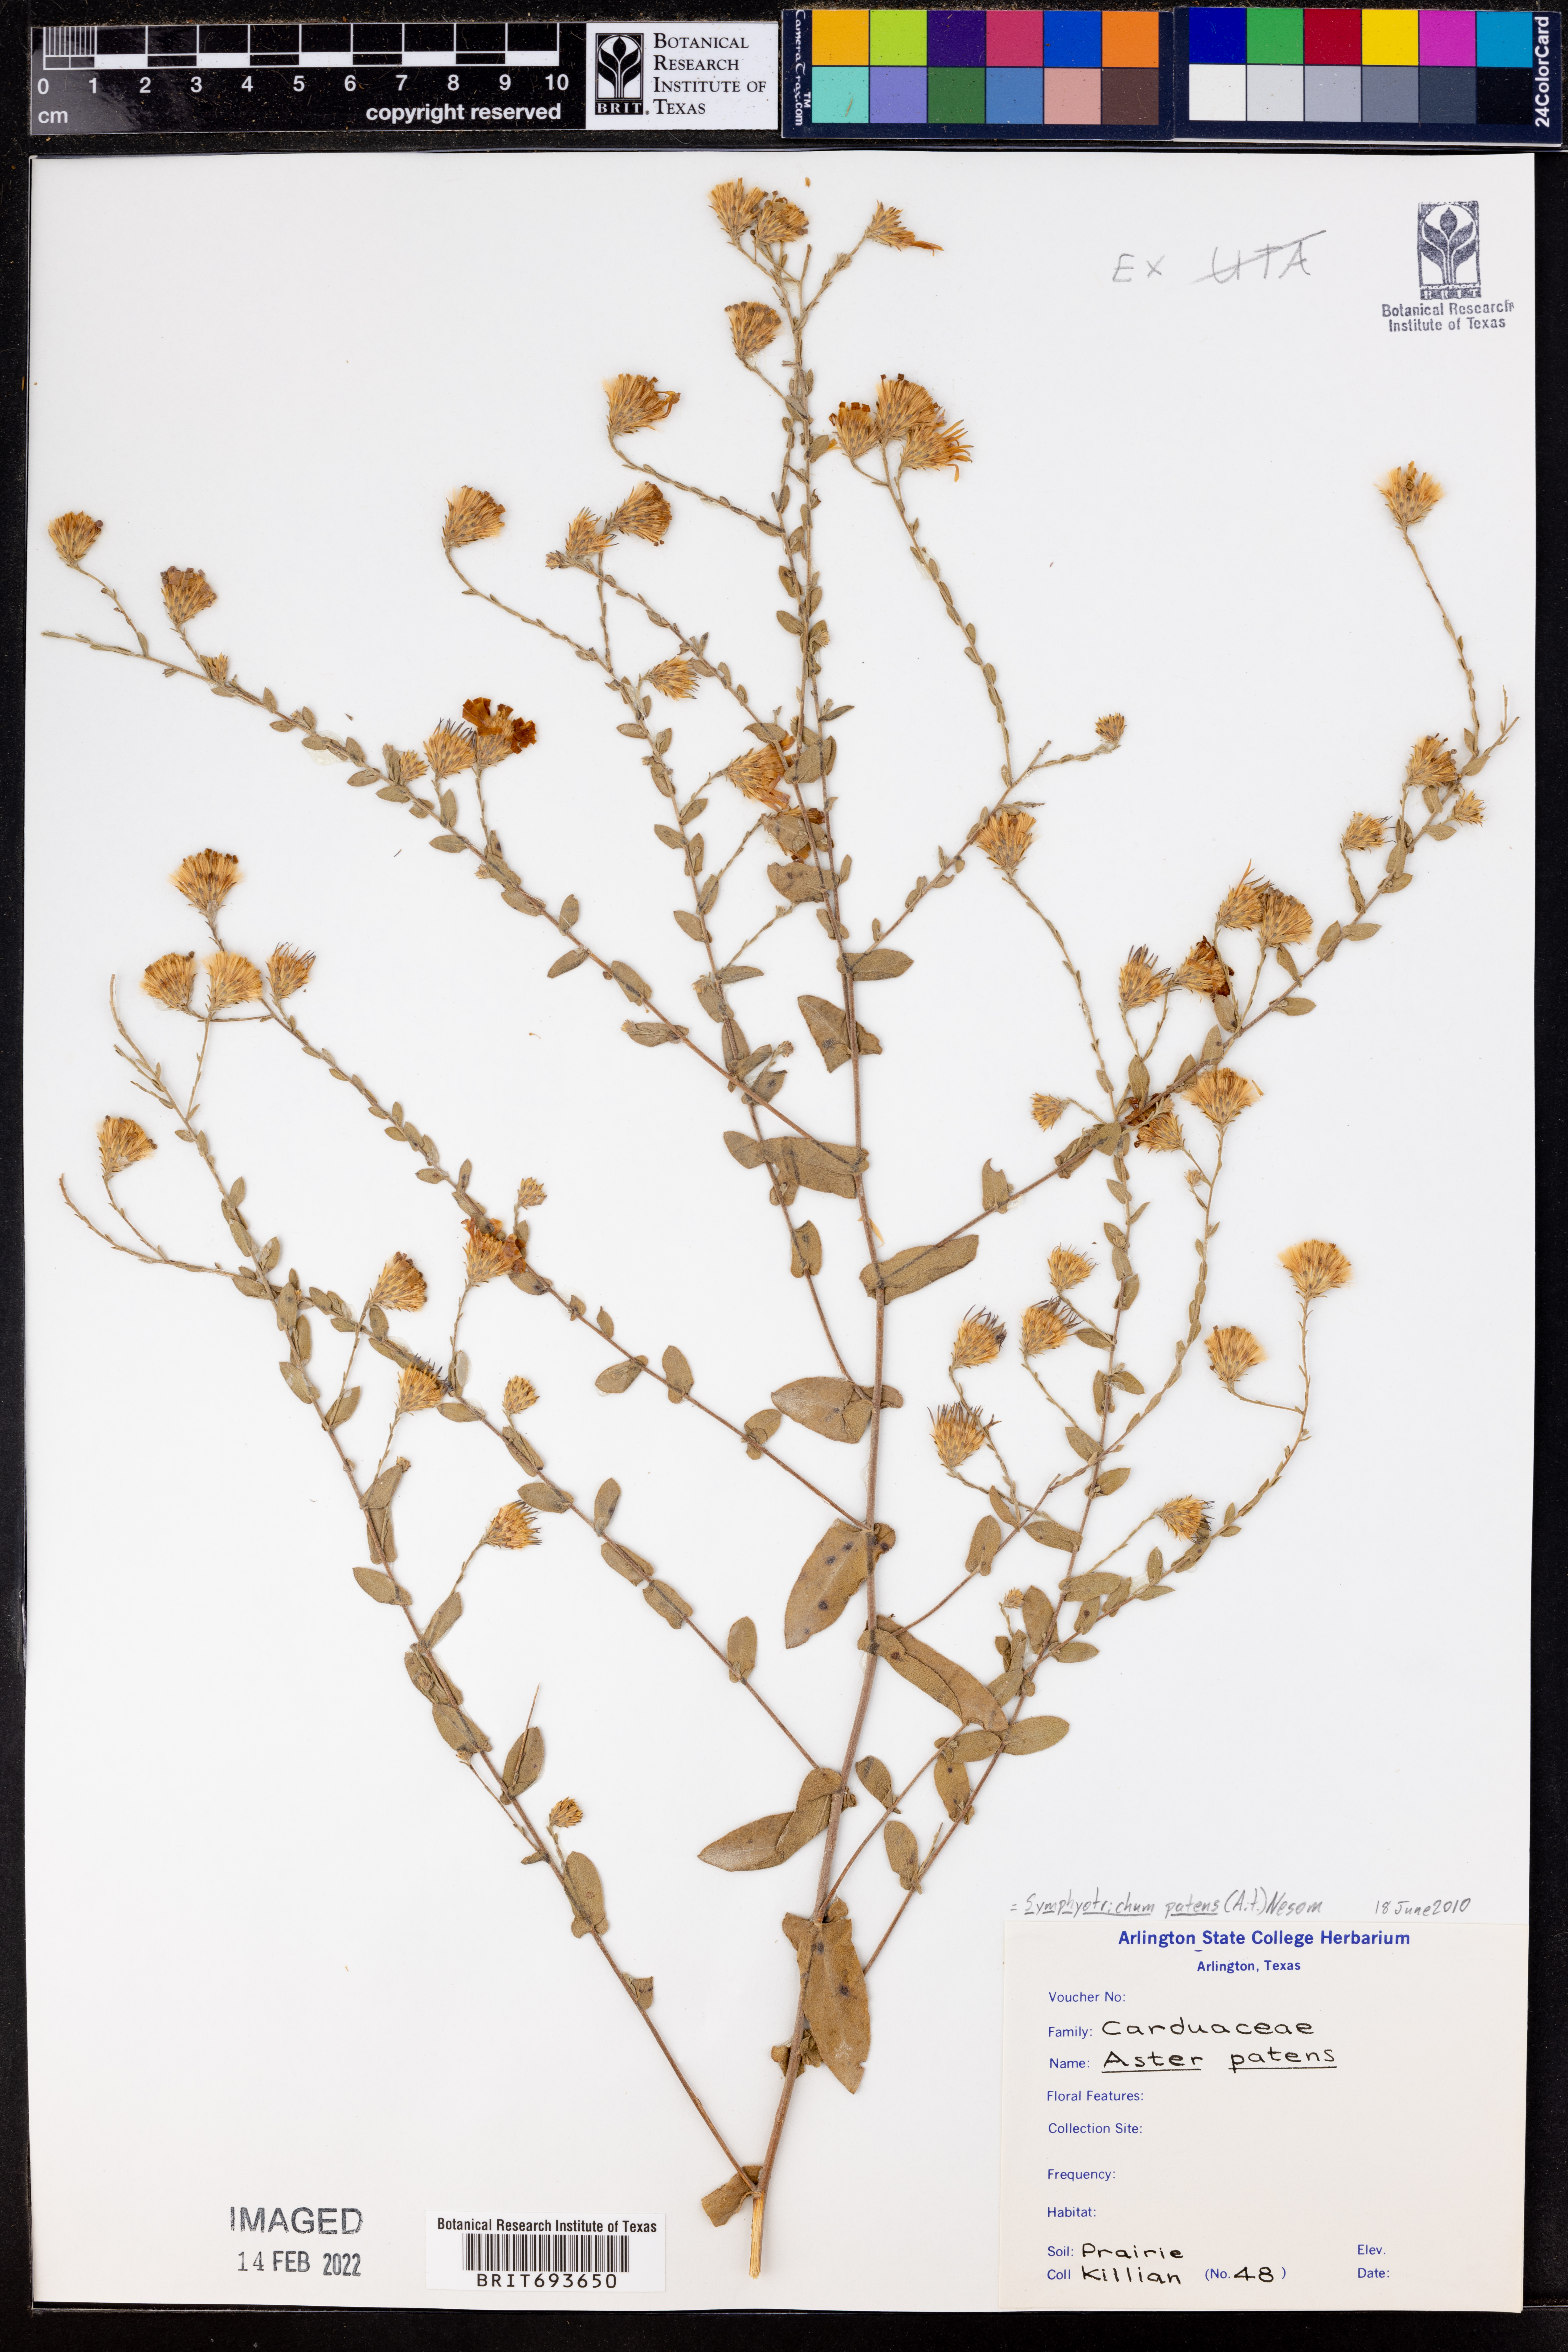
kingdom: Plantae
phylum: Tracheophyta
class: Magnoliopsida
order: Asterales
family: Asteraceae
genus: Symphyotrichum
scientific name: Symphyotrichum patens
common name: Late purple aster
